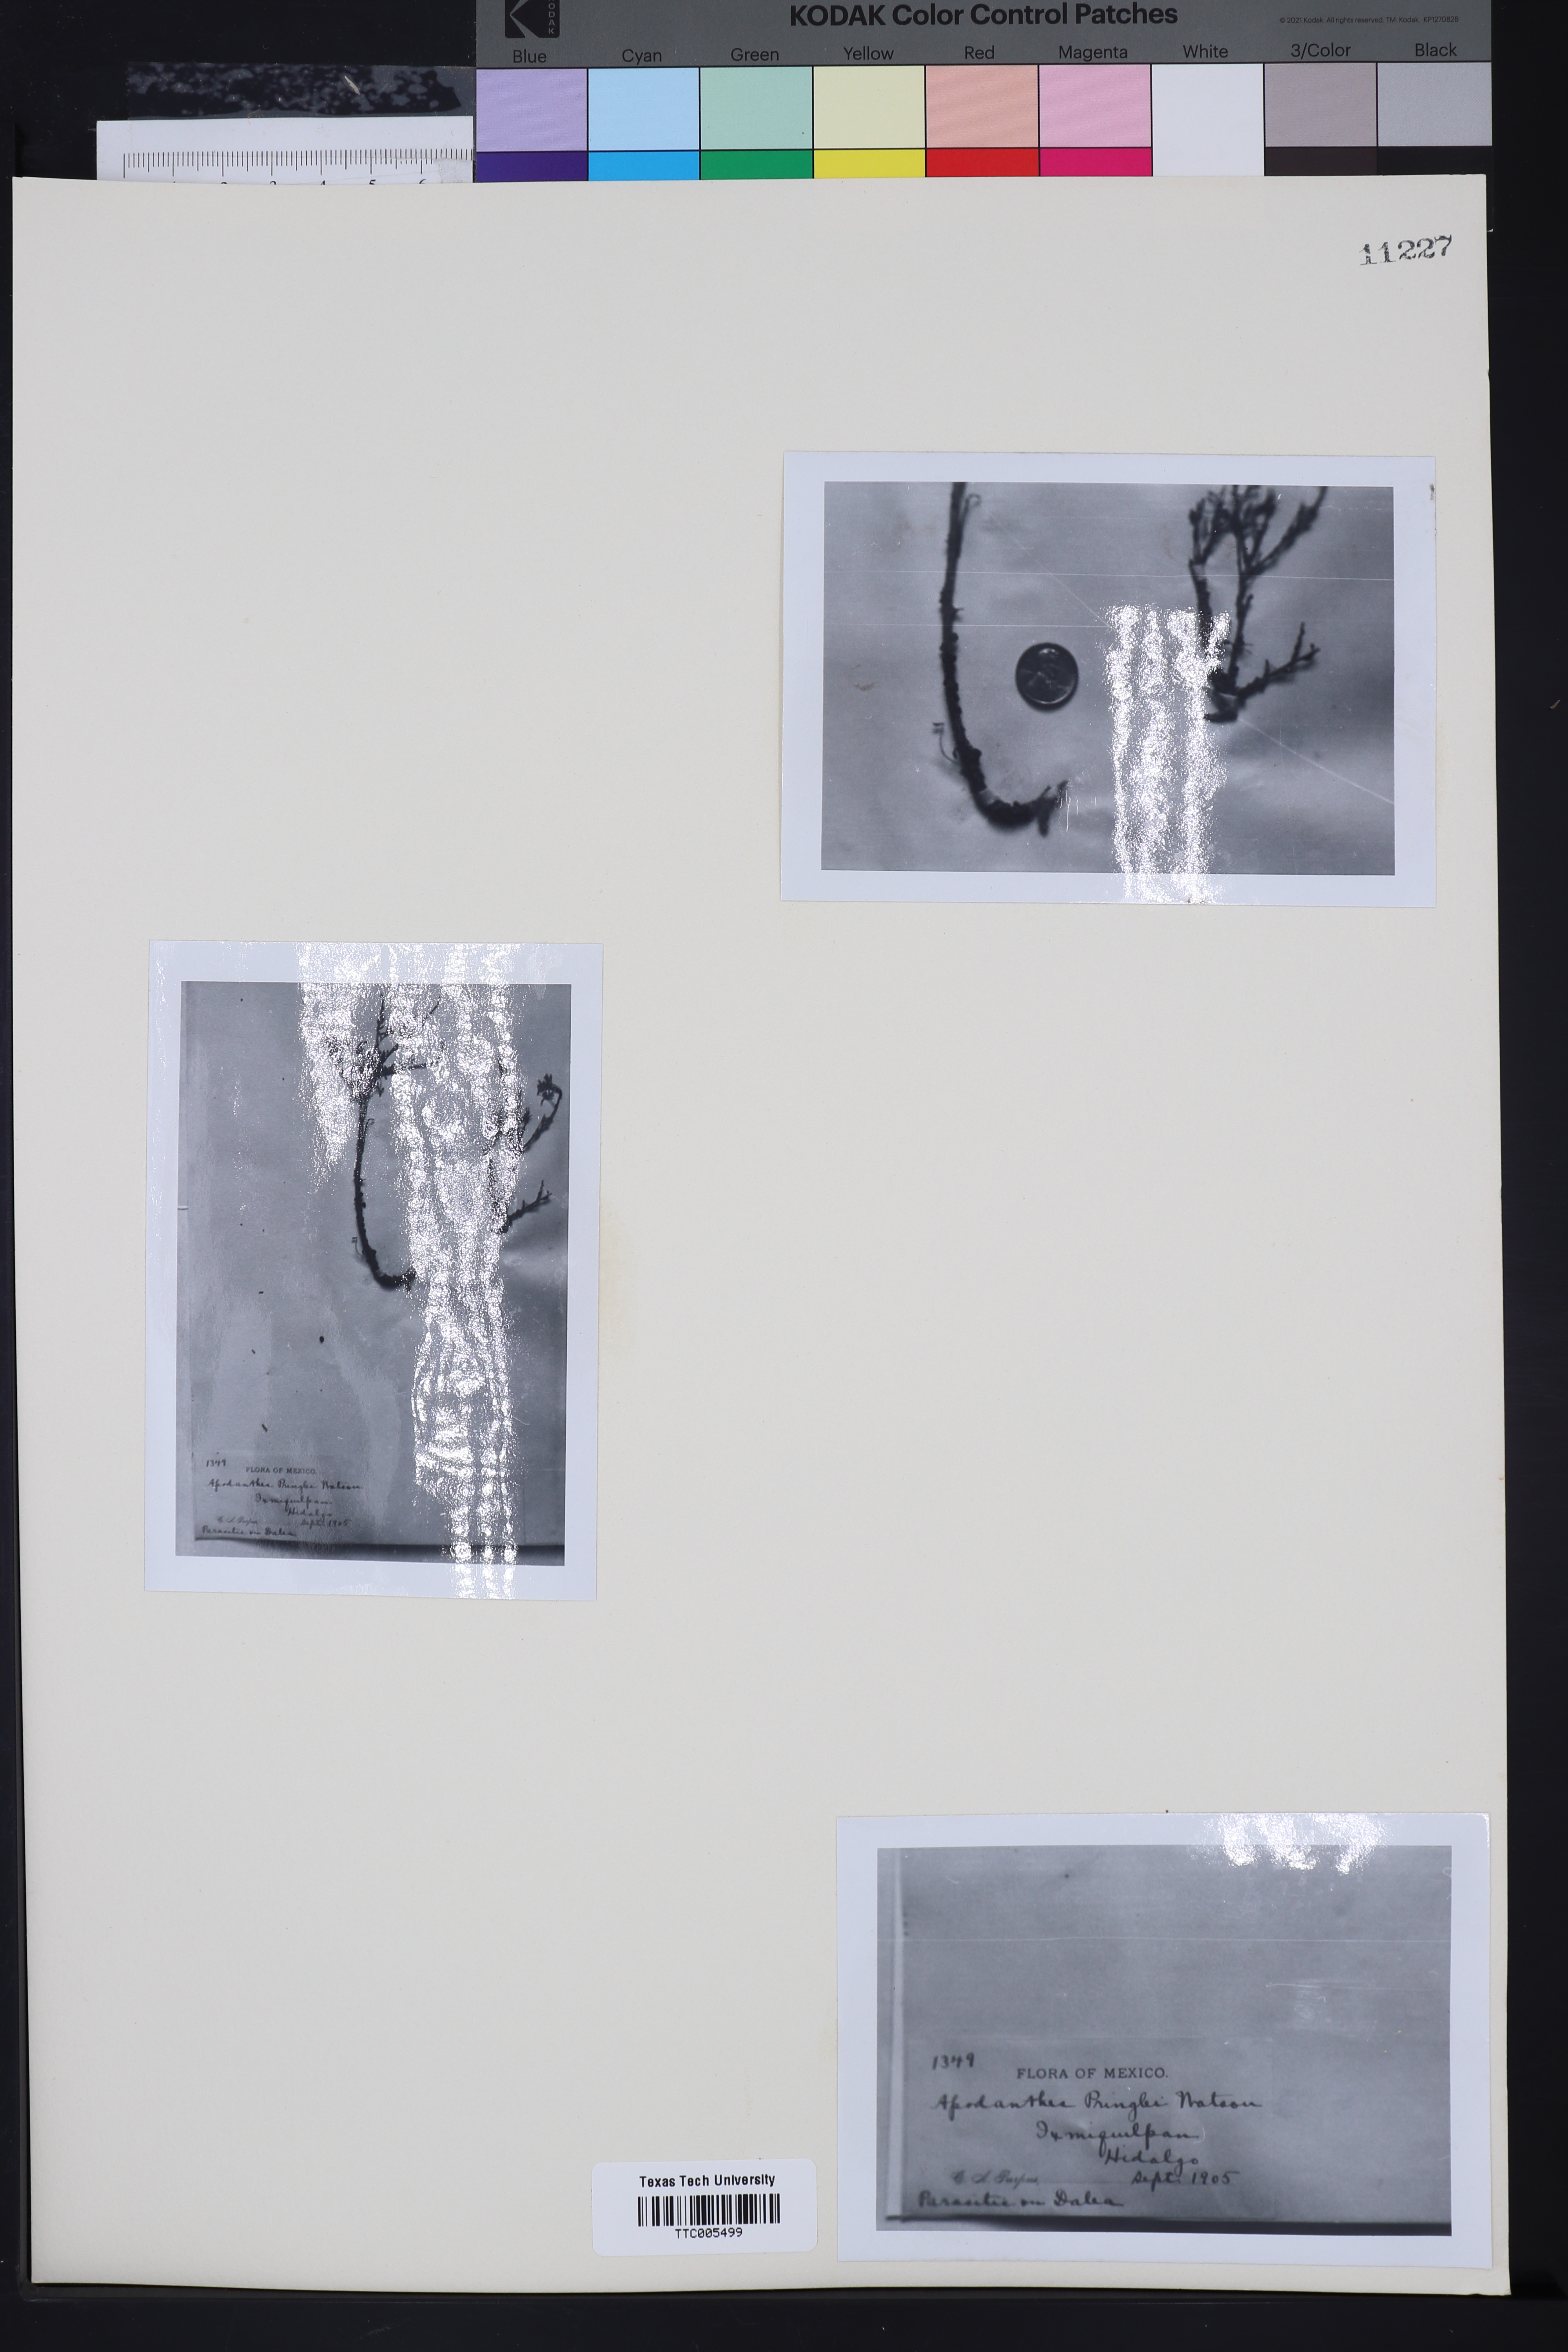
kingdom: Plantae
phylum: Tracheophyta
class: Magnoliopsida
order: Cucurbitales
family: Apodanthaceae
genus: Pilostyles
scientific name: Pilostyles thurberi
